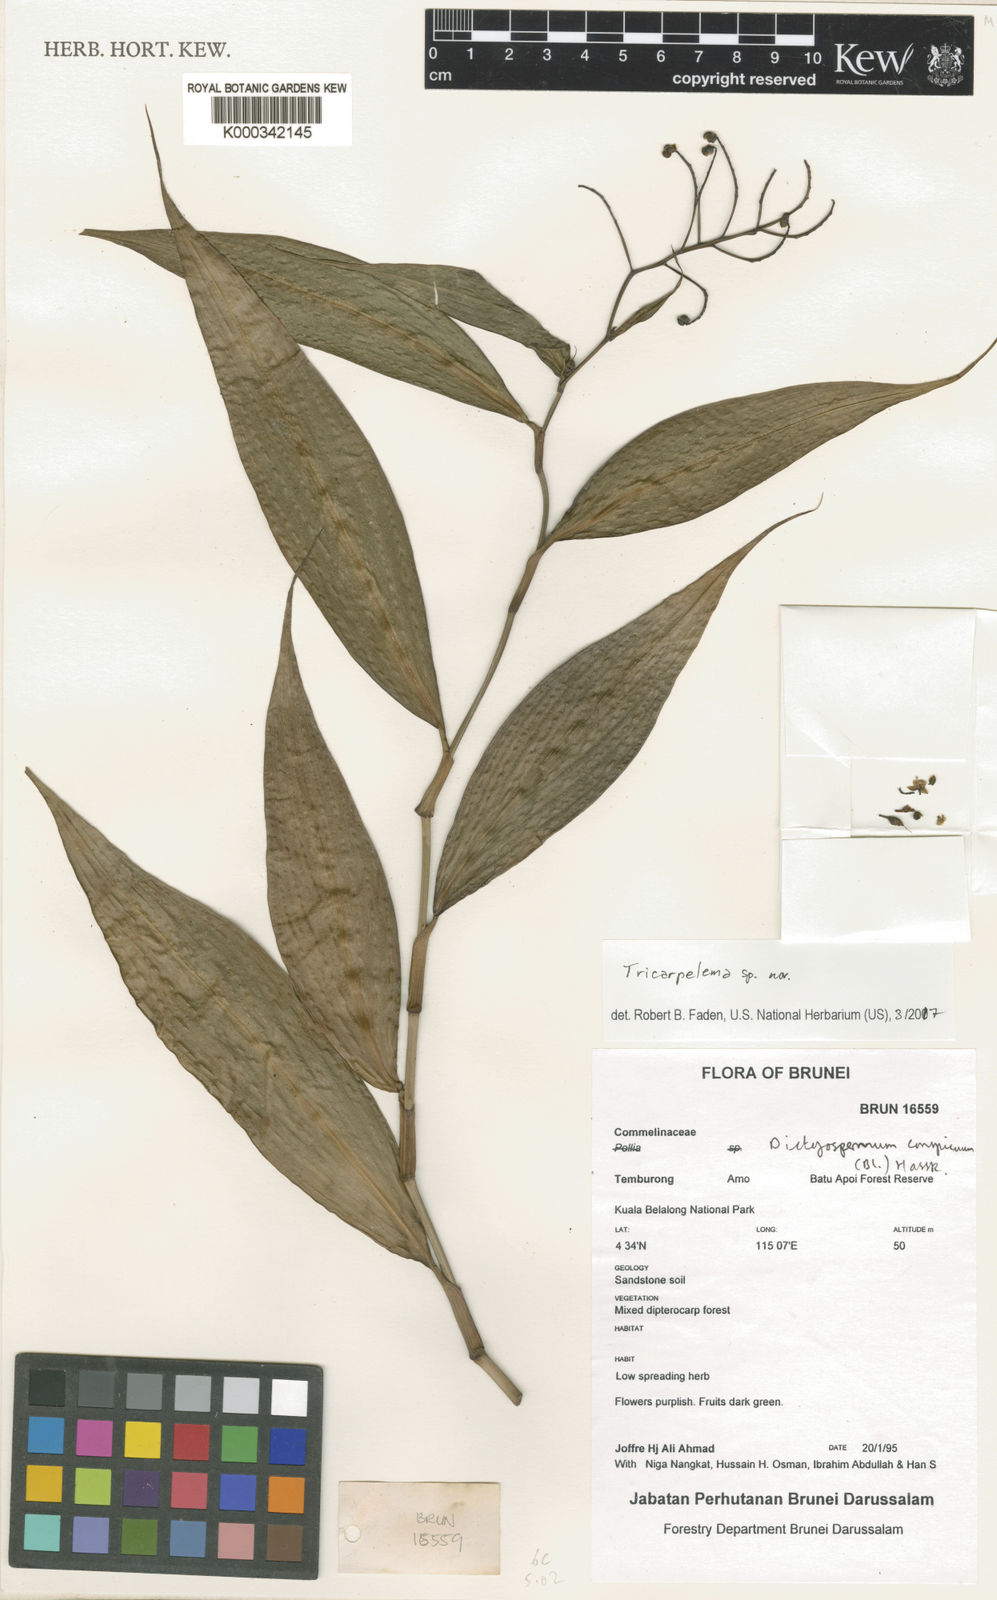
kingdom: Plantae
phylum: Tracheophyta
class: Liliopsida
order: Commelinales
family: Commelinaceae
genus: Tricarpelema
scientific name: Tricarpelema
